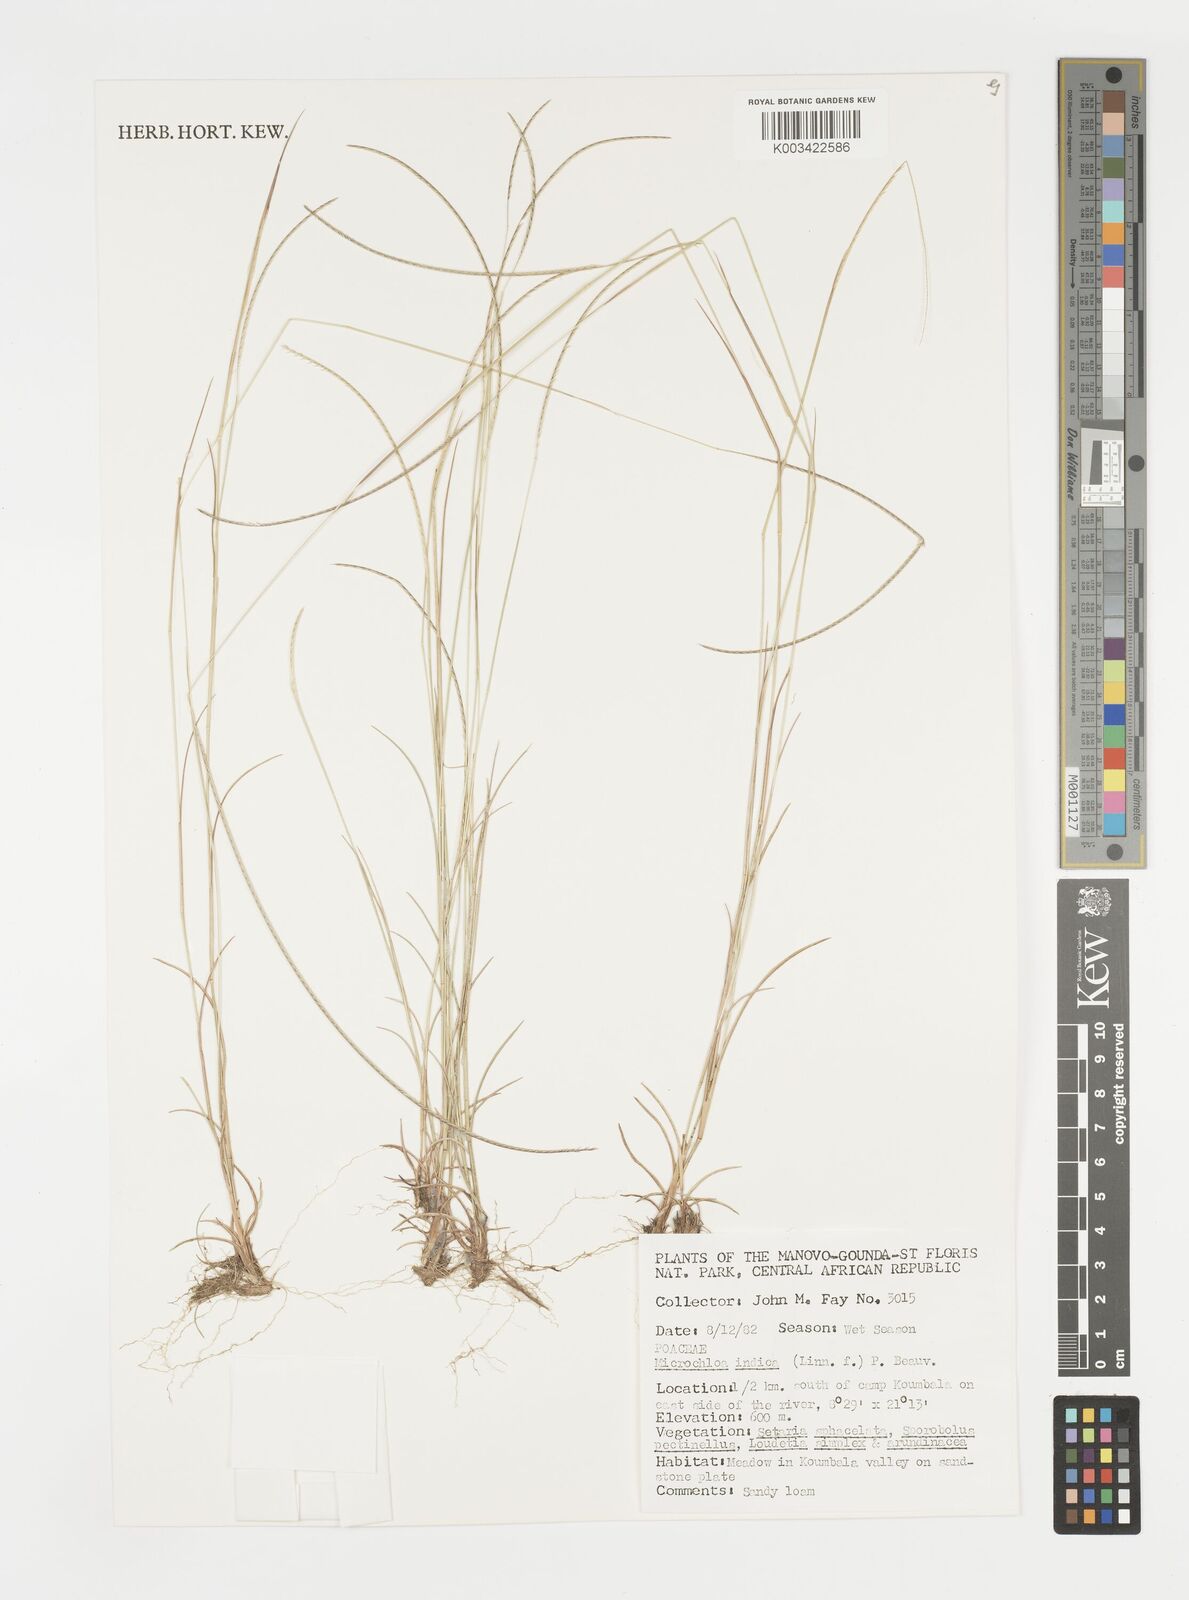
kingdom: Plantae
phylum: Tracheophyta
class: Liliopsida
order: Poales
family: Poaceae
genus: Microchloa
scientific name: Microchloa indica
